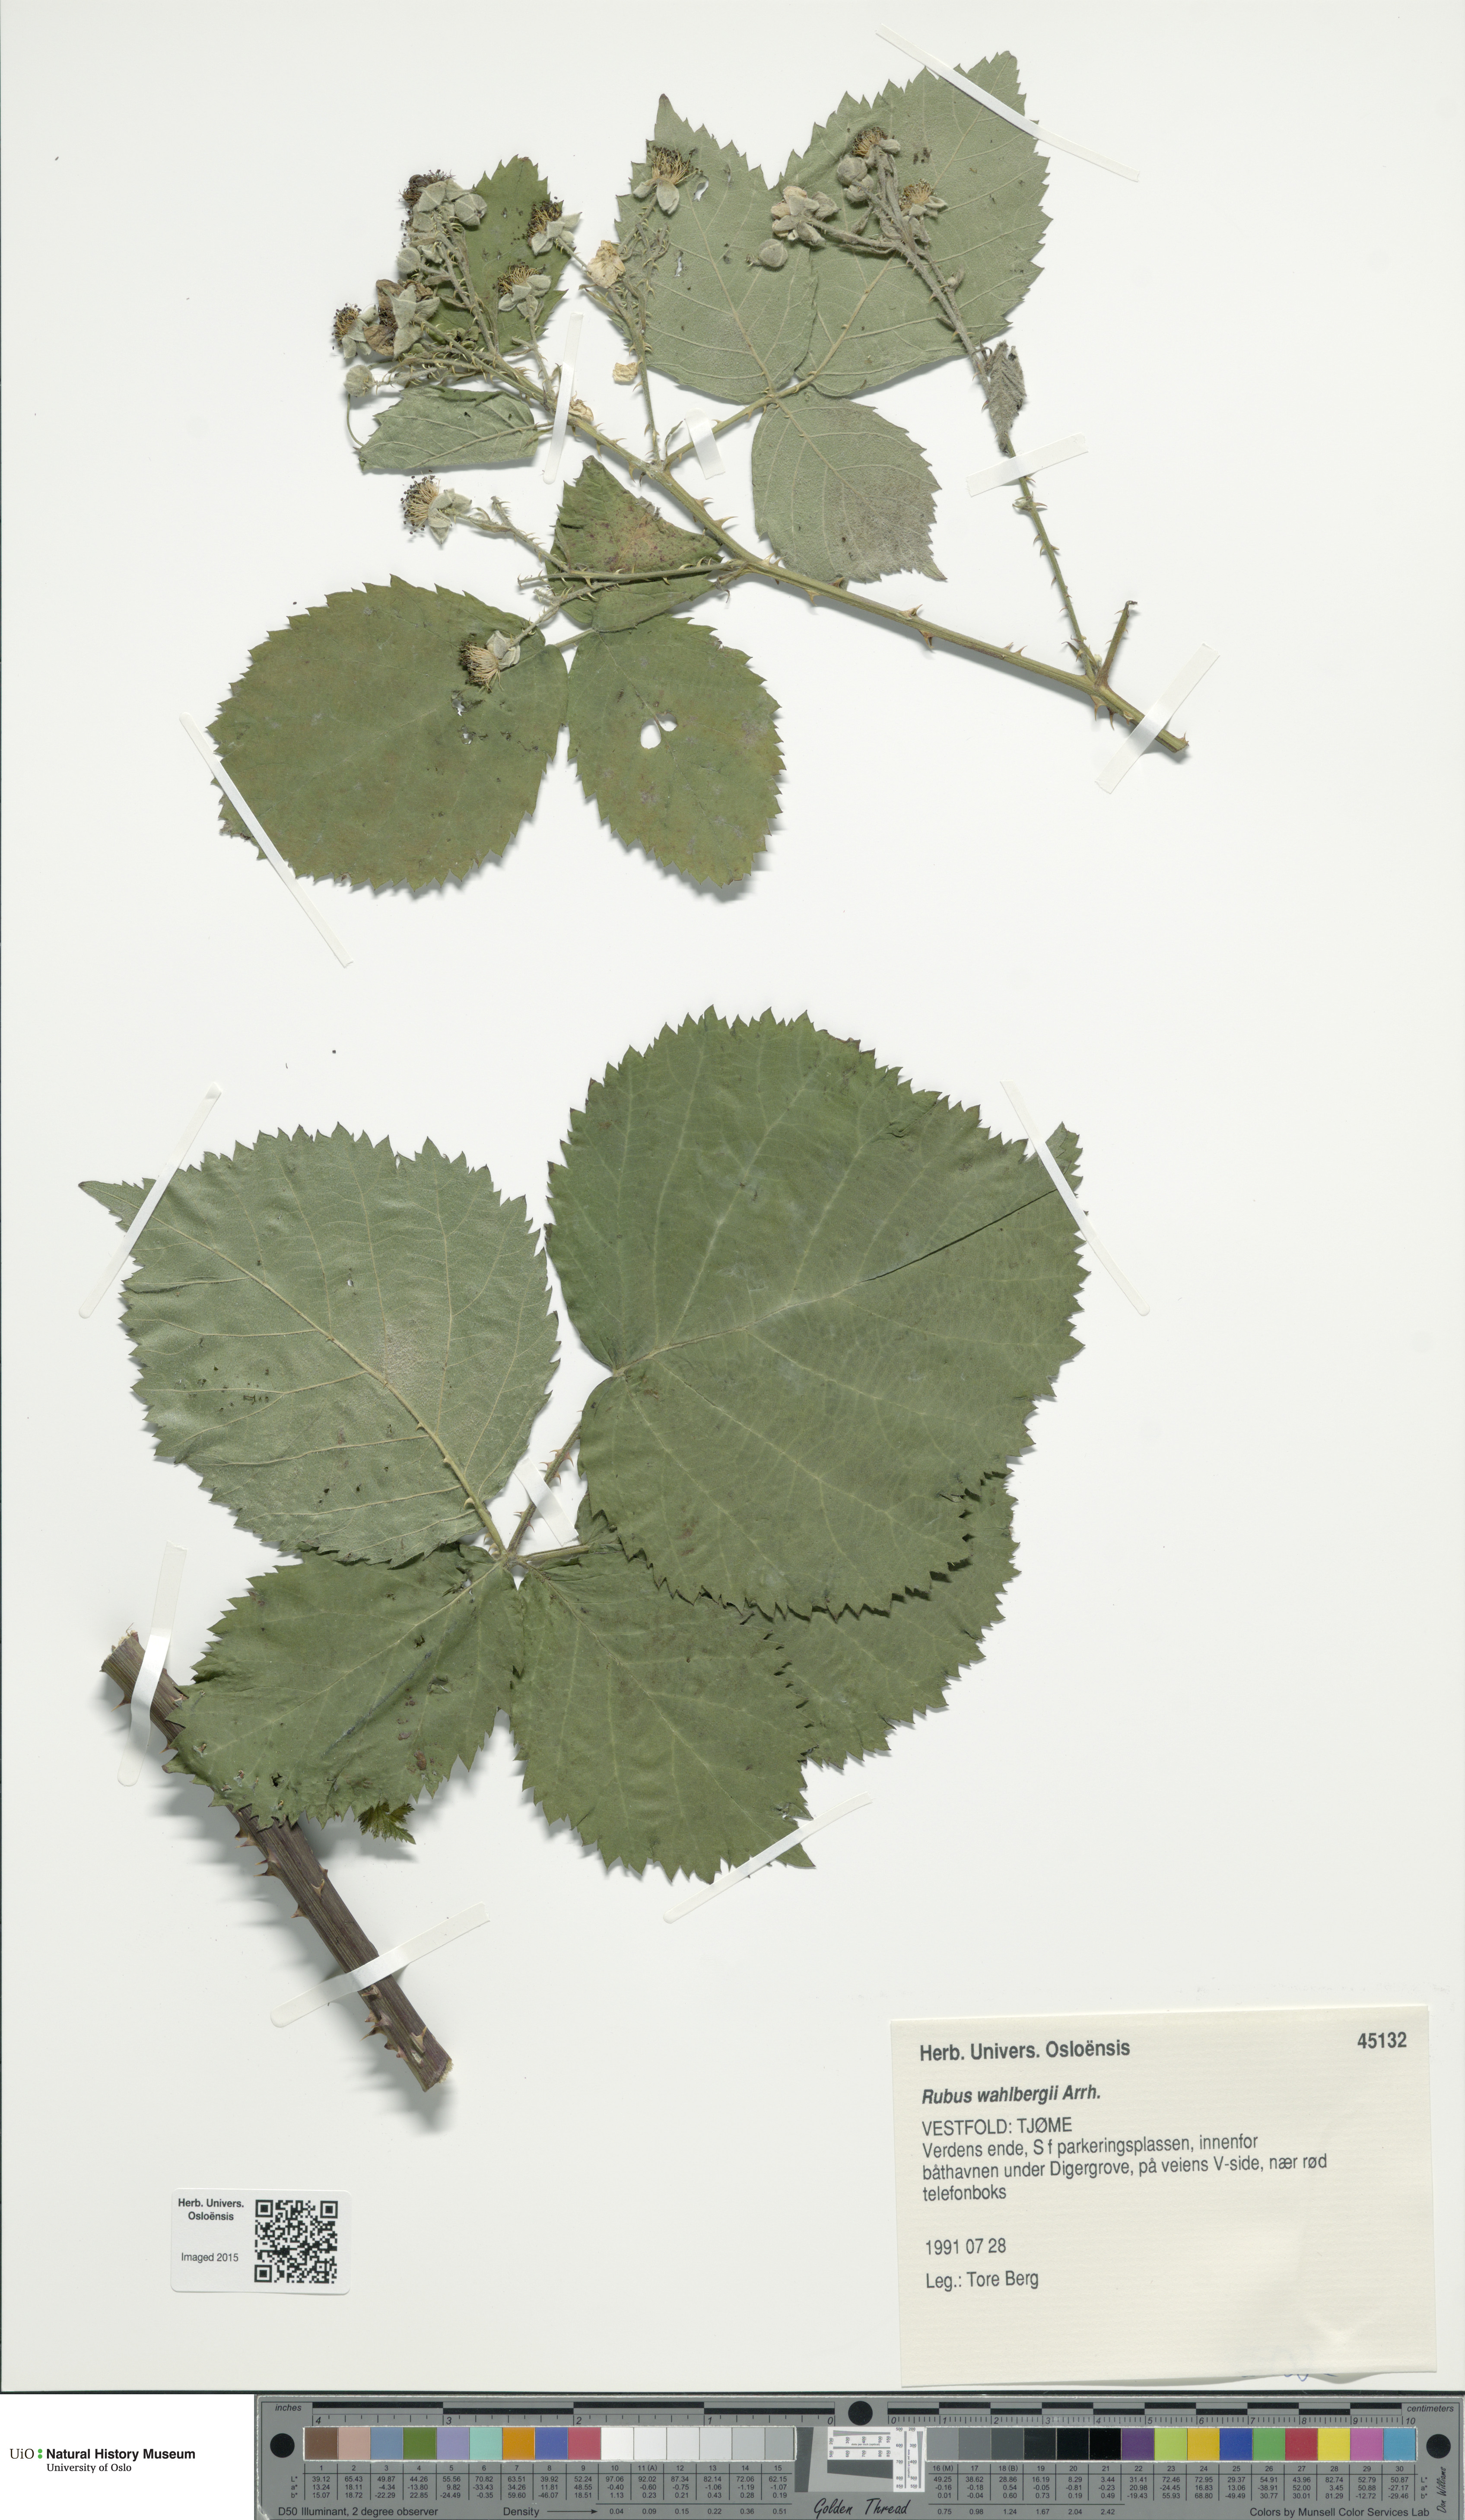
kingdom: Plantae
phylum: Tracheophyta
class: Magnoliopsida
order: Rosales
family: Rosaceae
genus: Rubus
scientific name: Rubus wahlbergii
